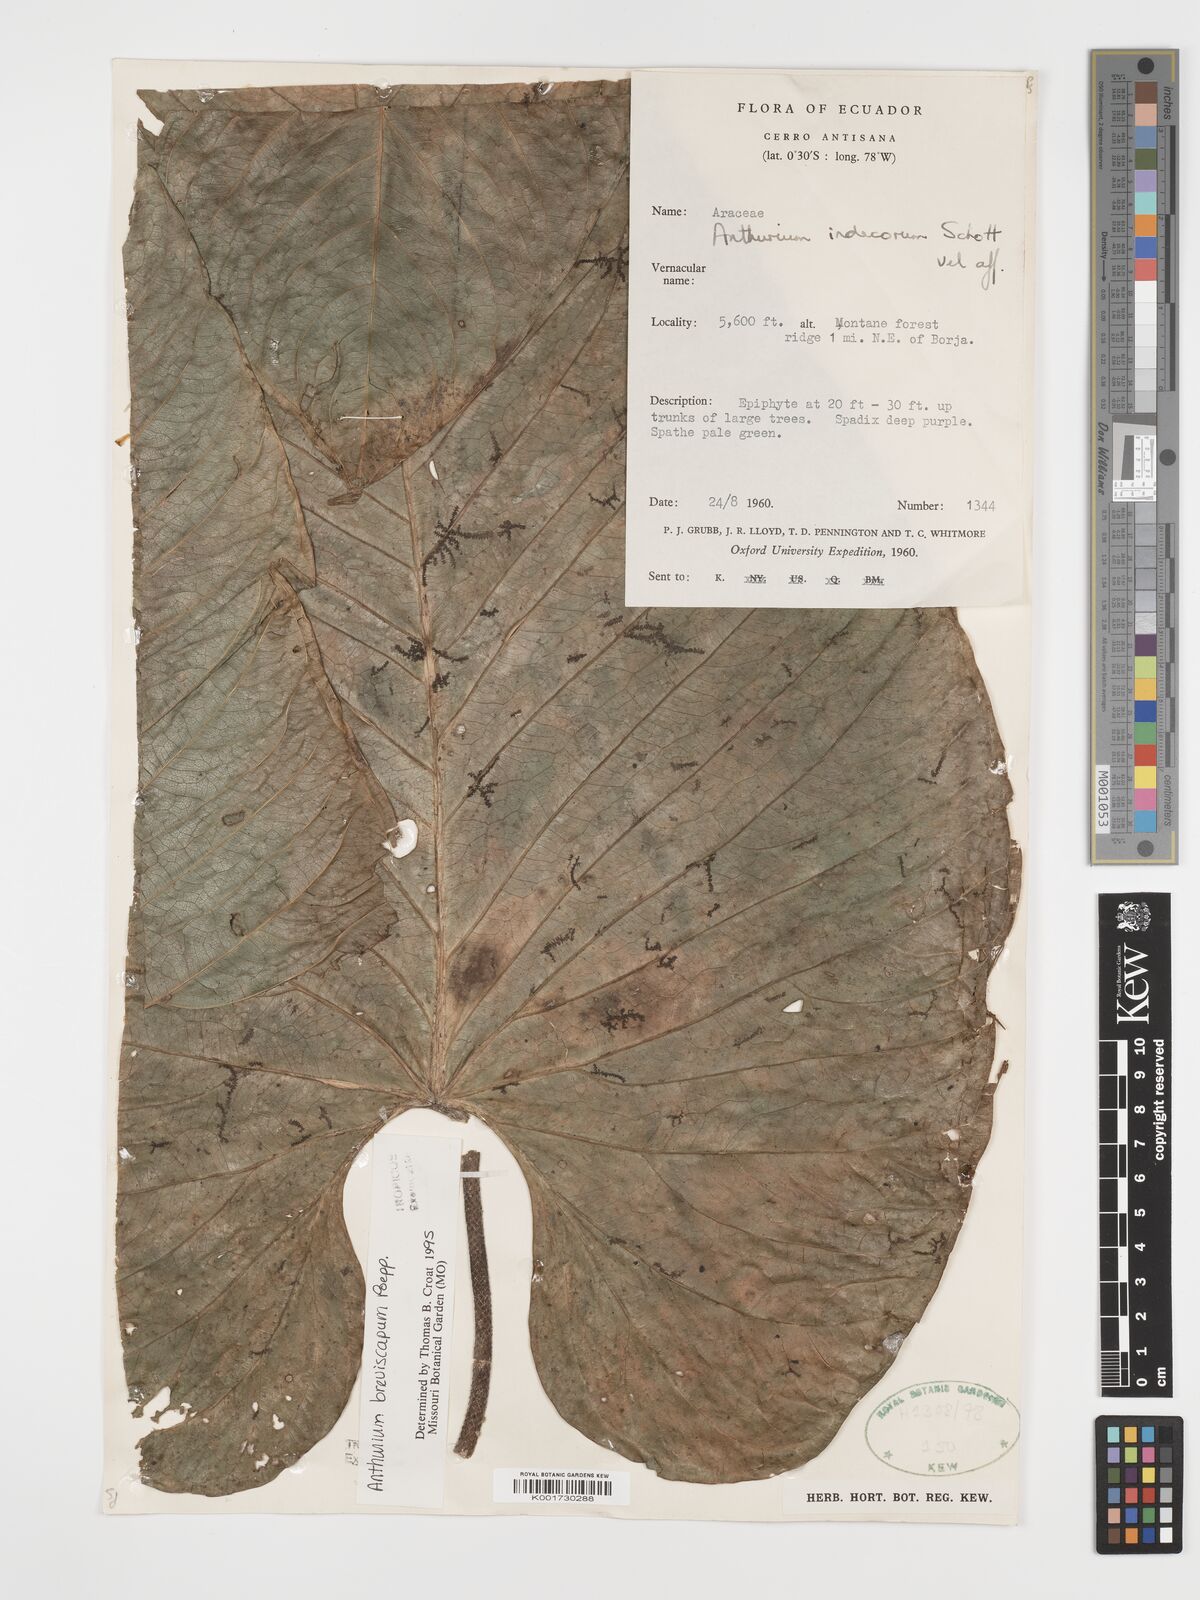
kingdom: Plantae
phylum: Tracheophyta
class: Liliopsida
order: Alismatales
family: Araceae
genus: Anthurium
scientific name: Anthurium breviscapum
